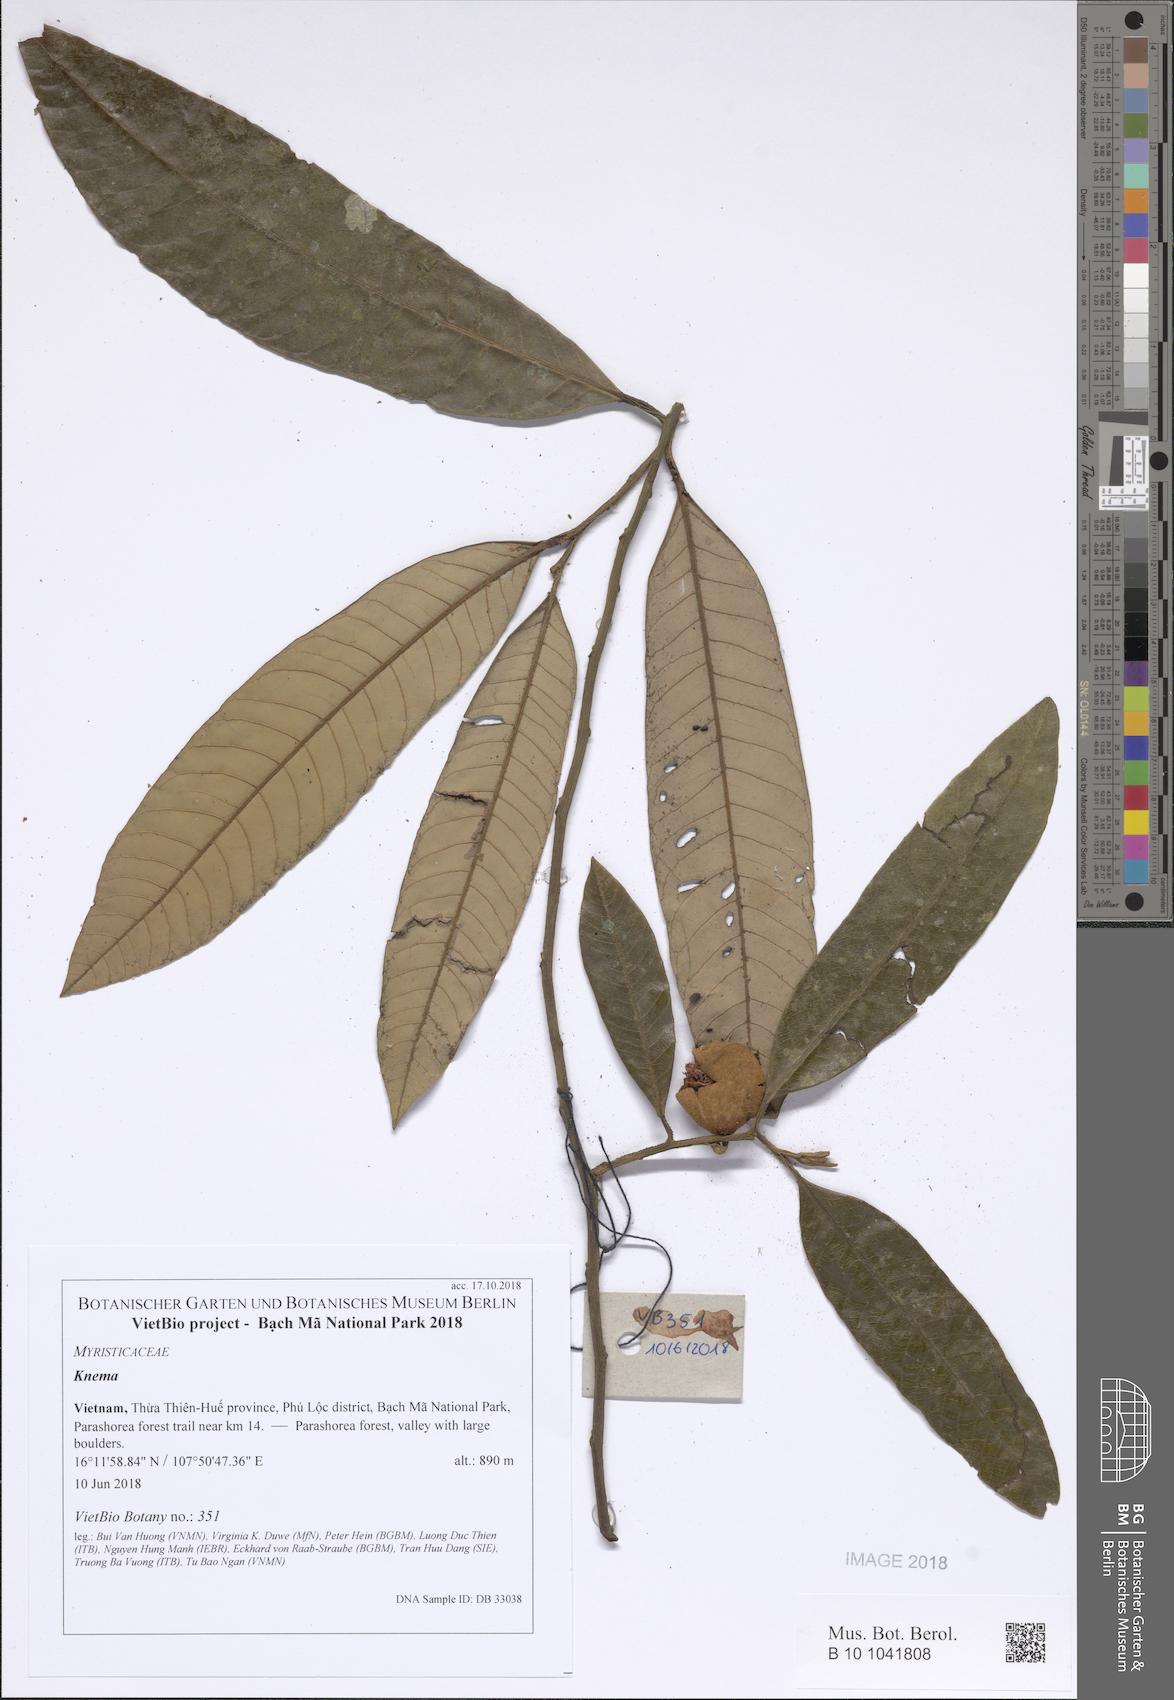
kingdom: Plantae
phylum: Tracheophyta
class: Magnoliopsida
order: Magnoliales
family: Myristicaceae
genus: Knema
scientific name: Knema
